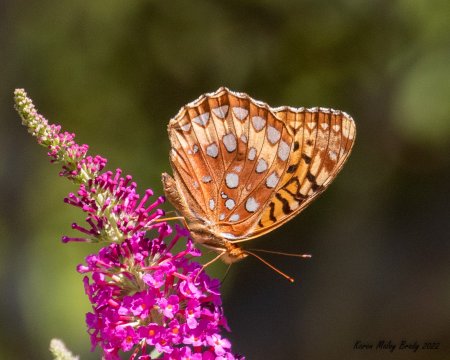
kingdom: Animalia
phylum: Arthropoda
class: Insecta
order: Lepidoptera
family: Nymphalidae
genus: Speyeria
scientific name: Speyeria cybele
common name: Great Spangled Fritillary
